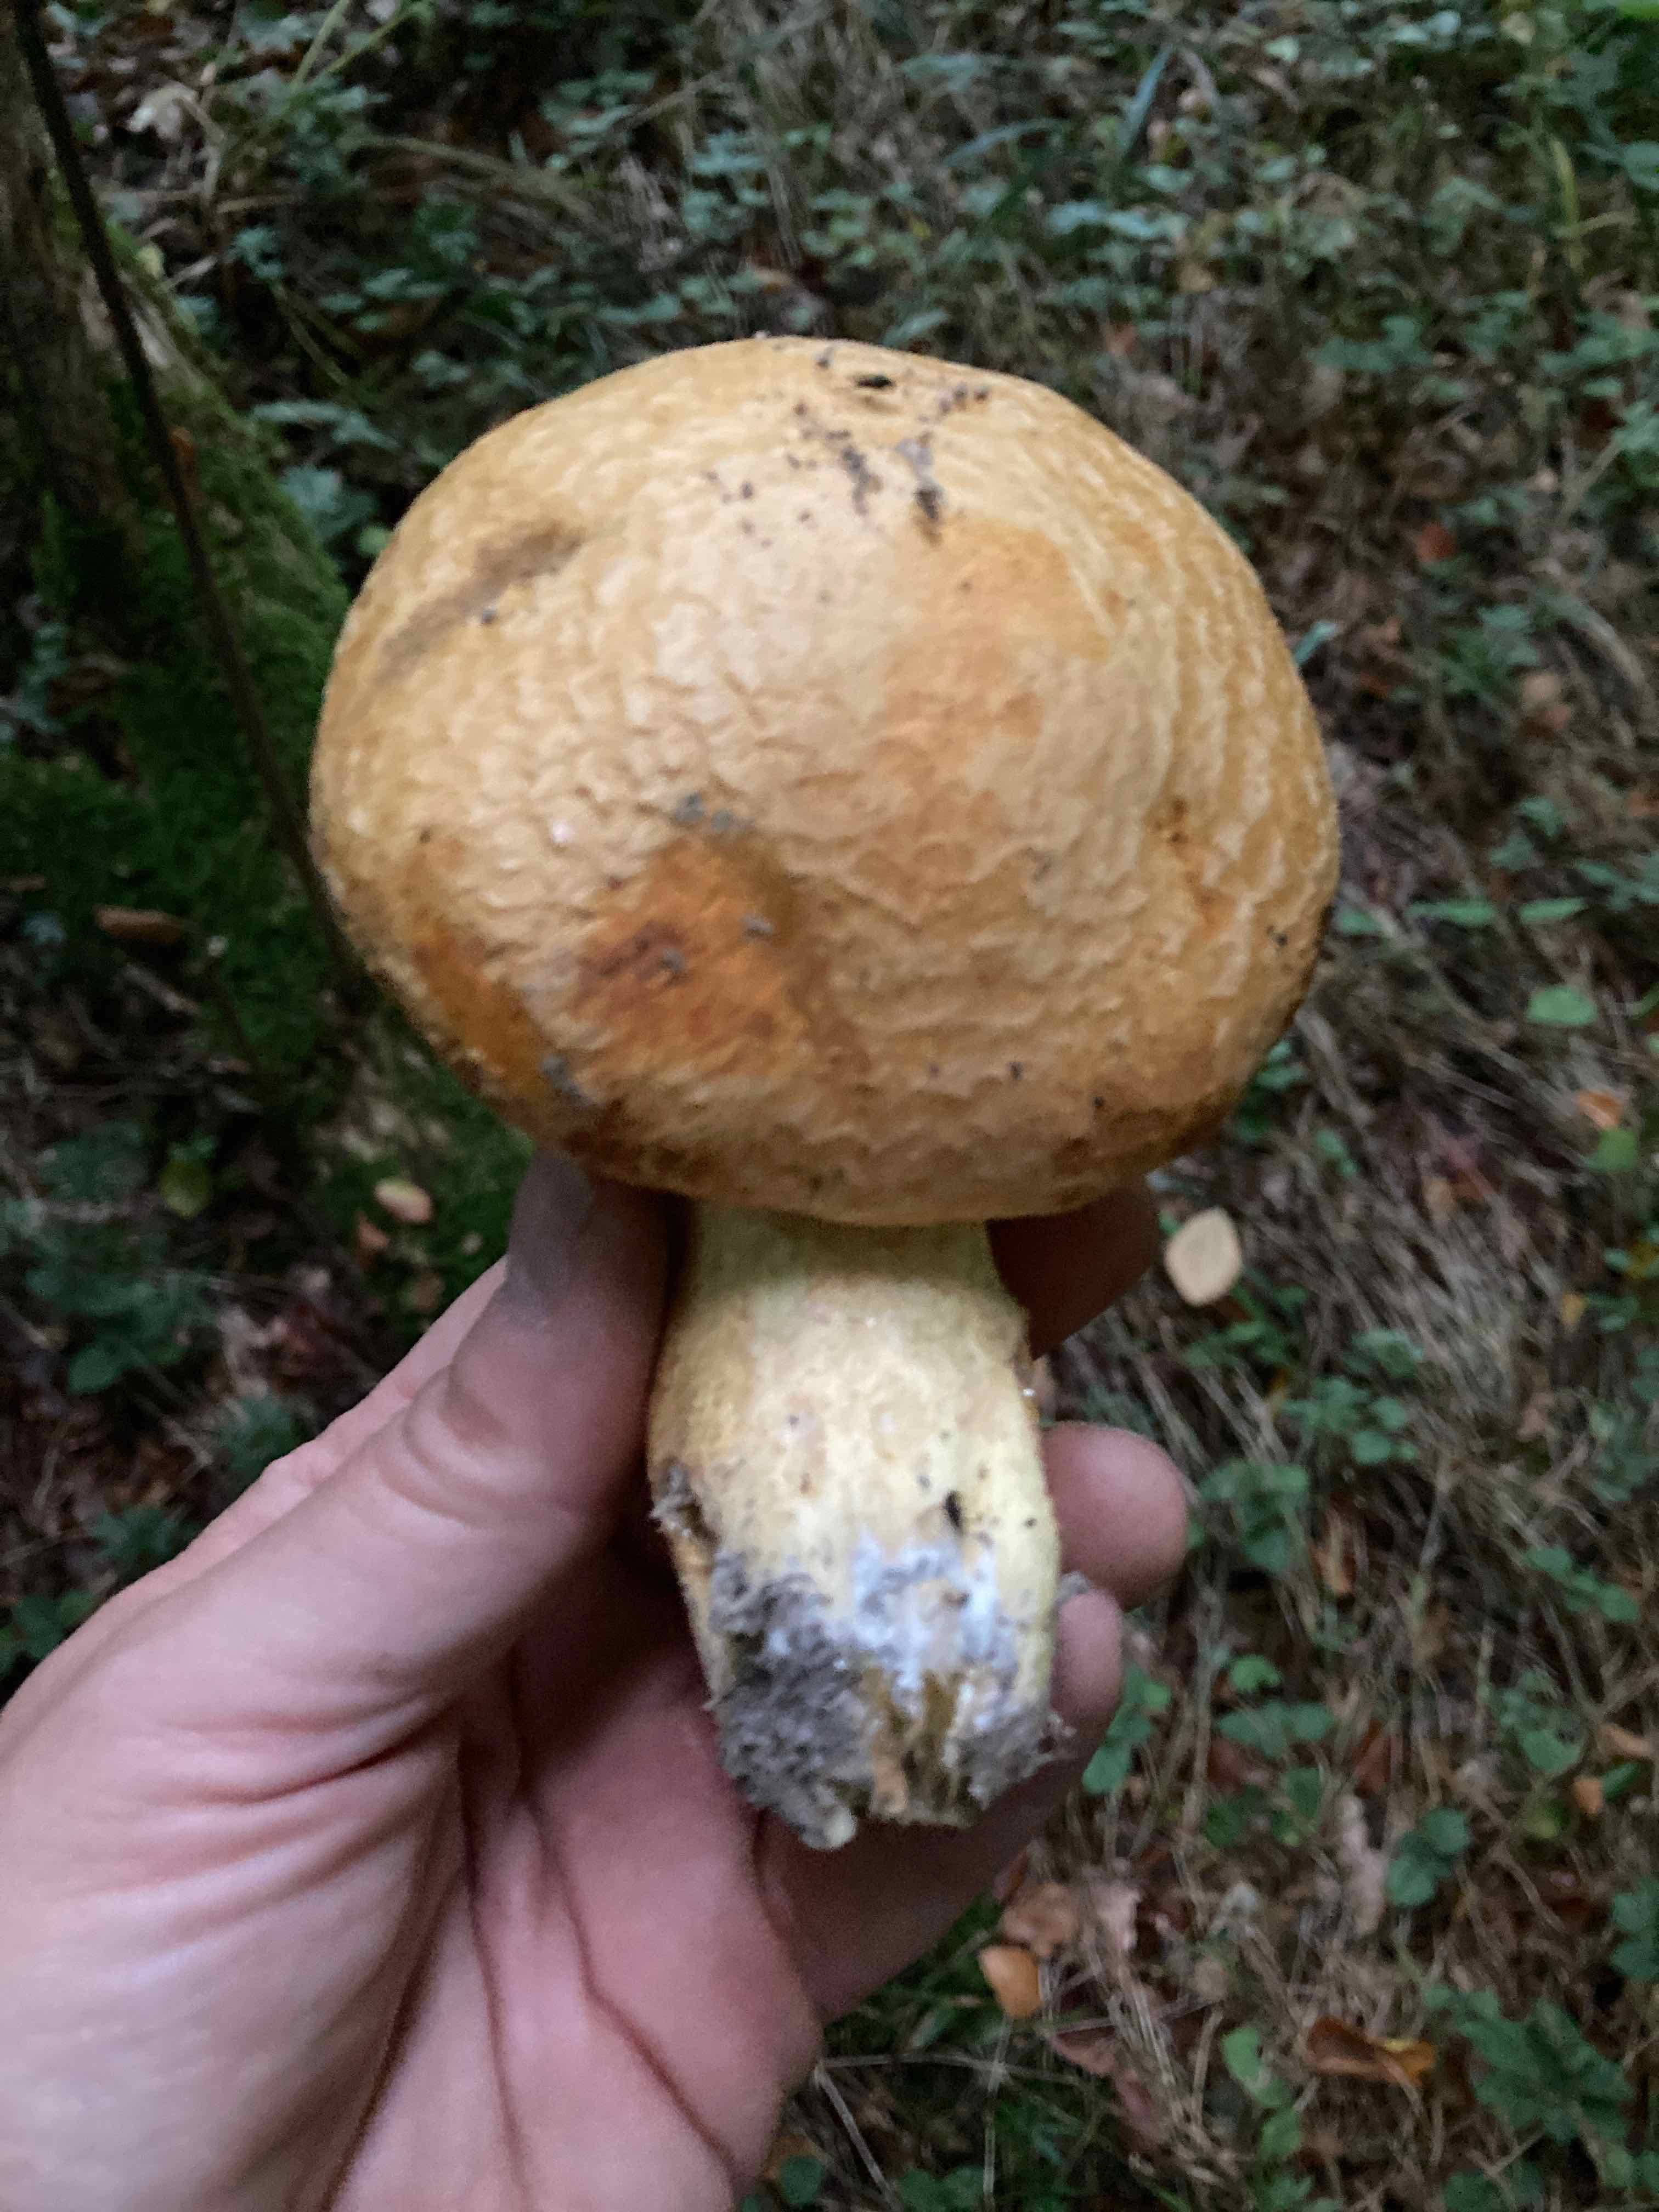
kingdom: Fungi
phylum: Basidiomycota
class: Agaricomycetes
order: Agaricales
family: Hymenogastraceae
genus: Gymnopilus
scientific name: Gymnopilus spectabilis
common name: fibret flammehat
